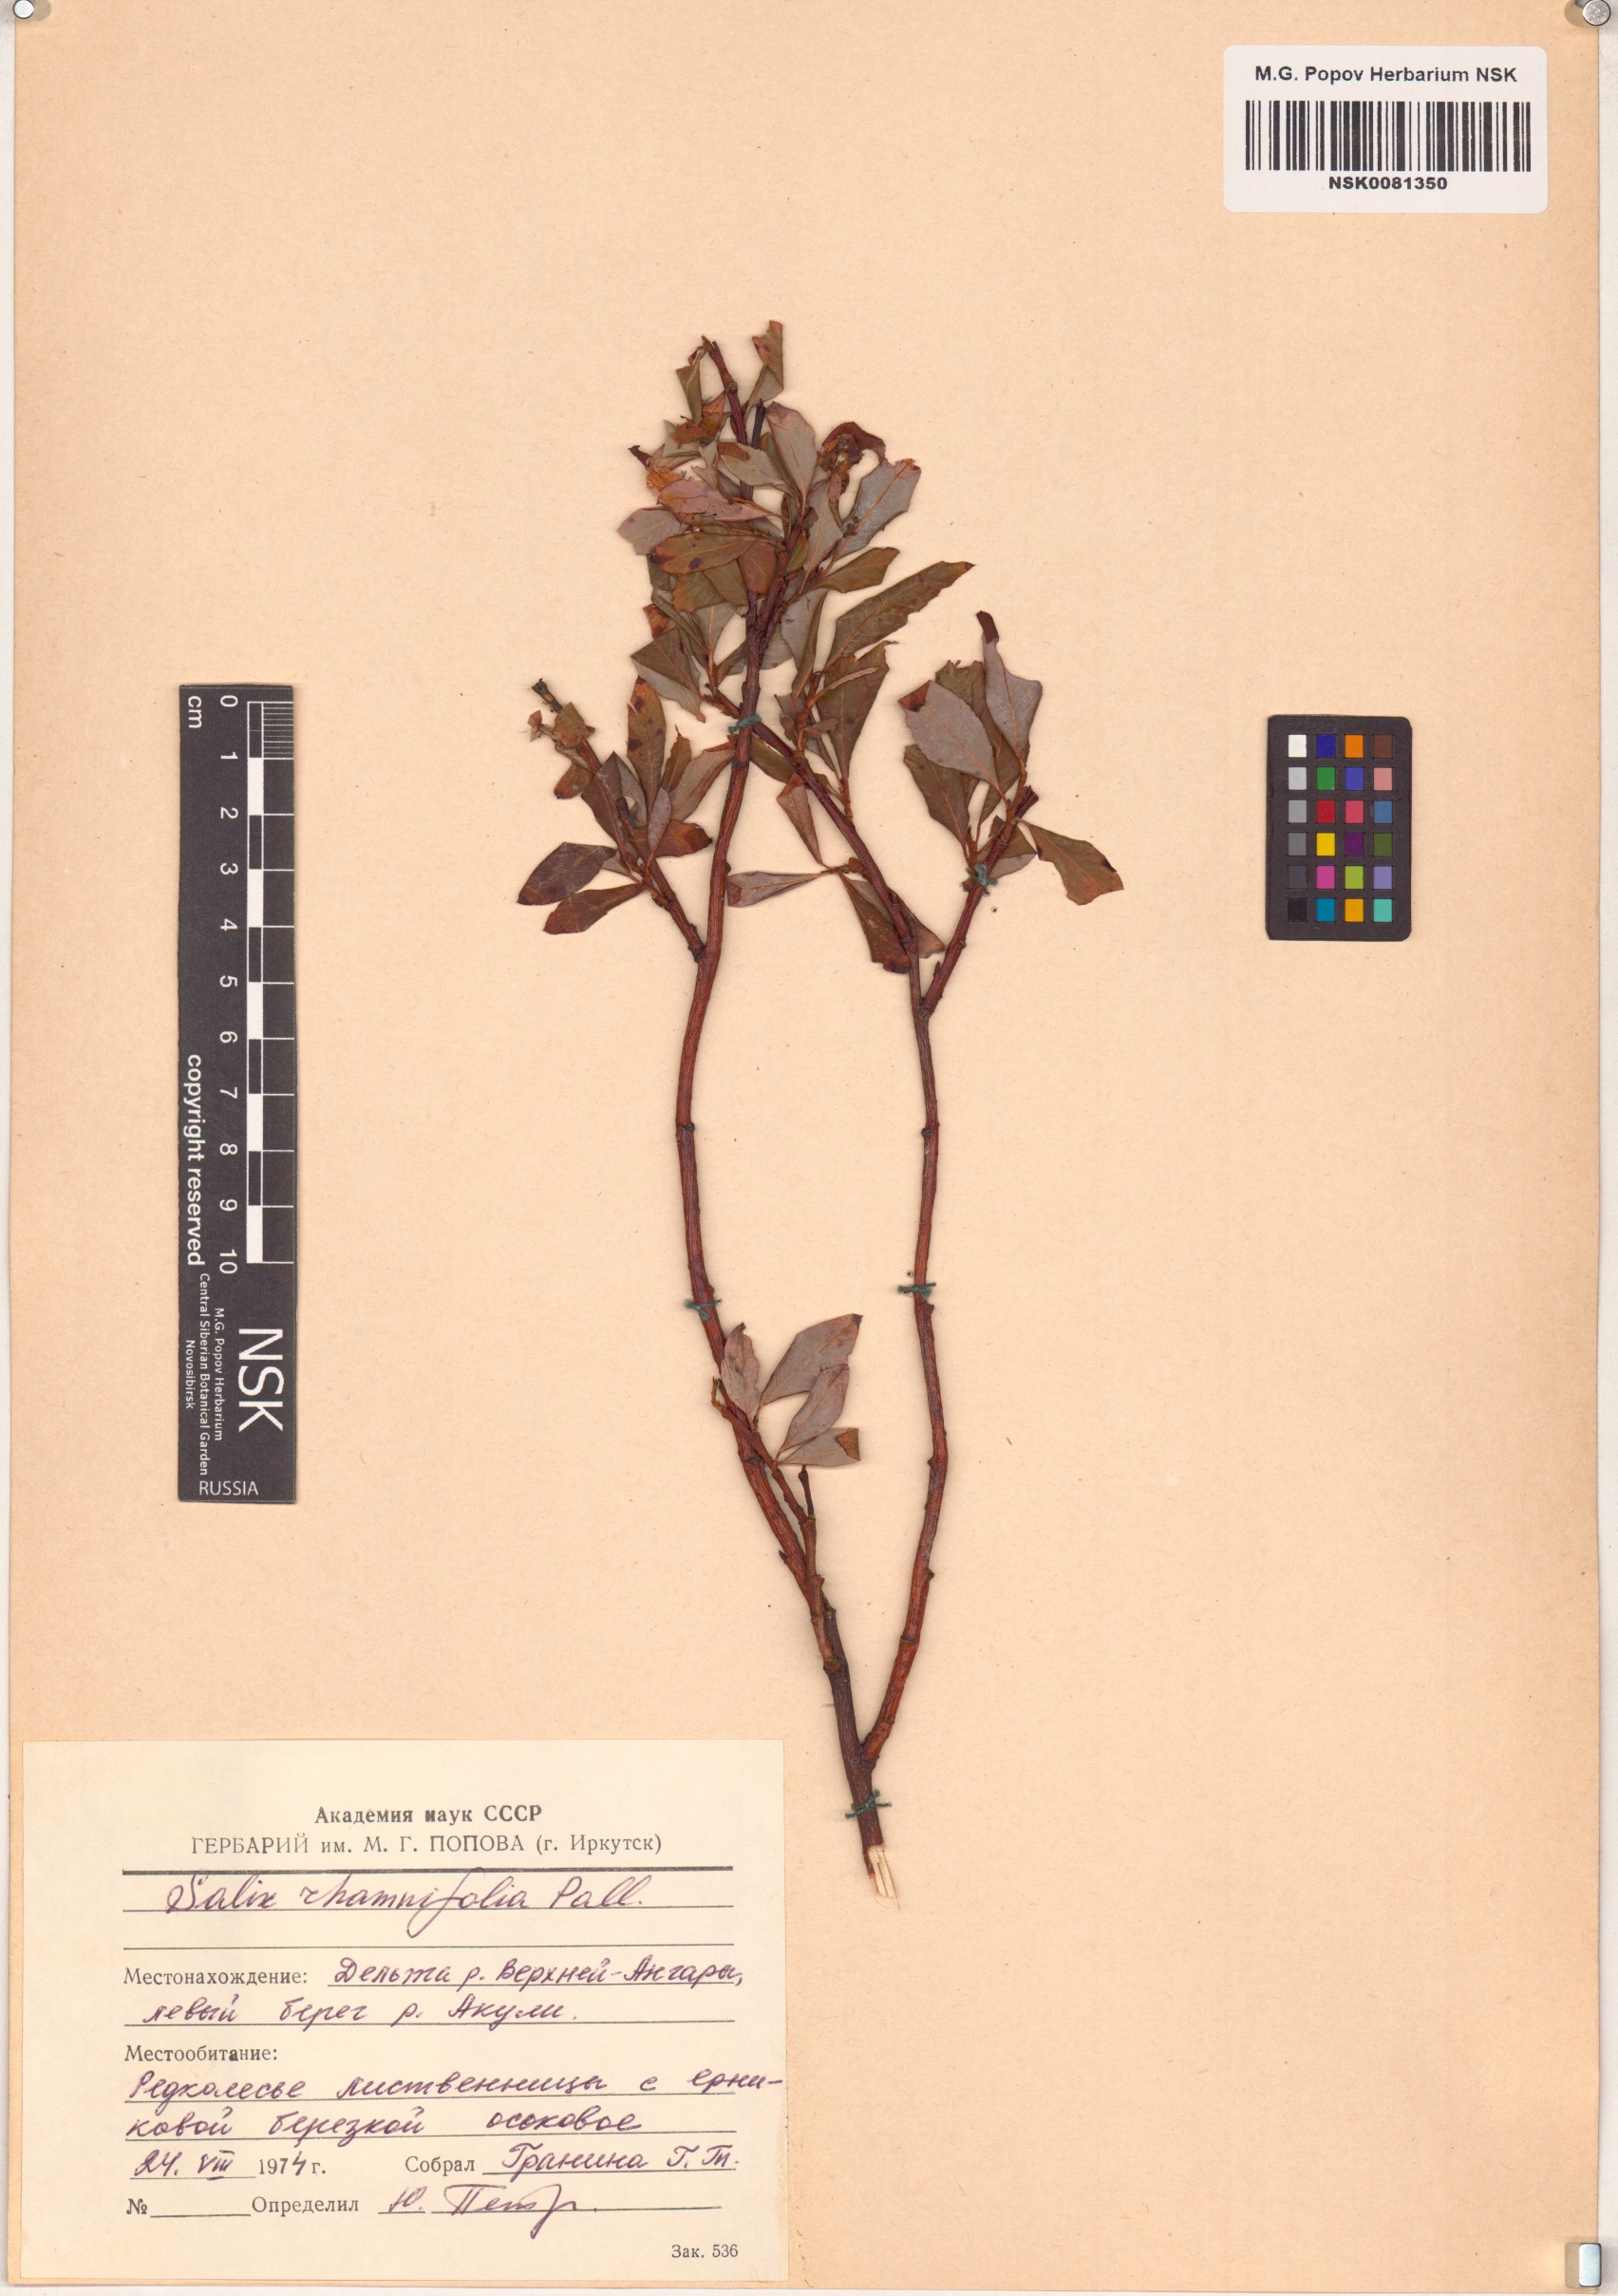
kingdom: Plantae
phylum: Tracheophyta
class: Magnoliopsida
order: Malpighiales
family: Salicaceae
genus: Salix
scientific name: Salix rhamnifolia
